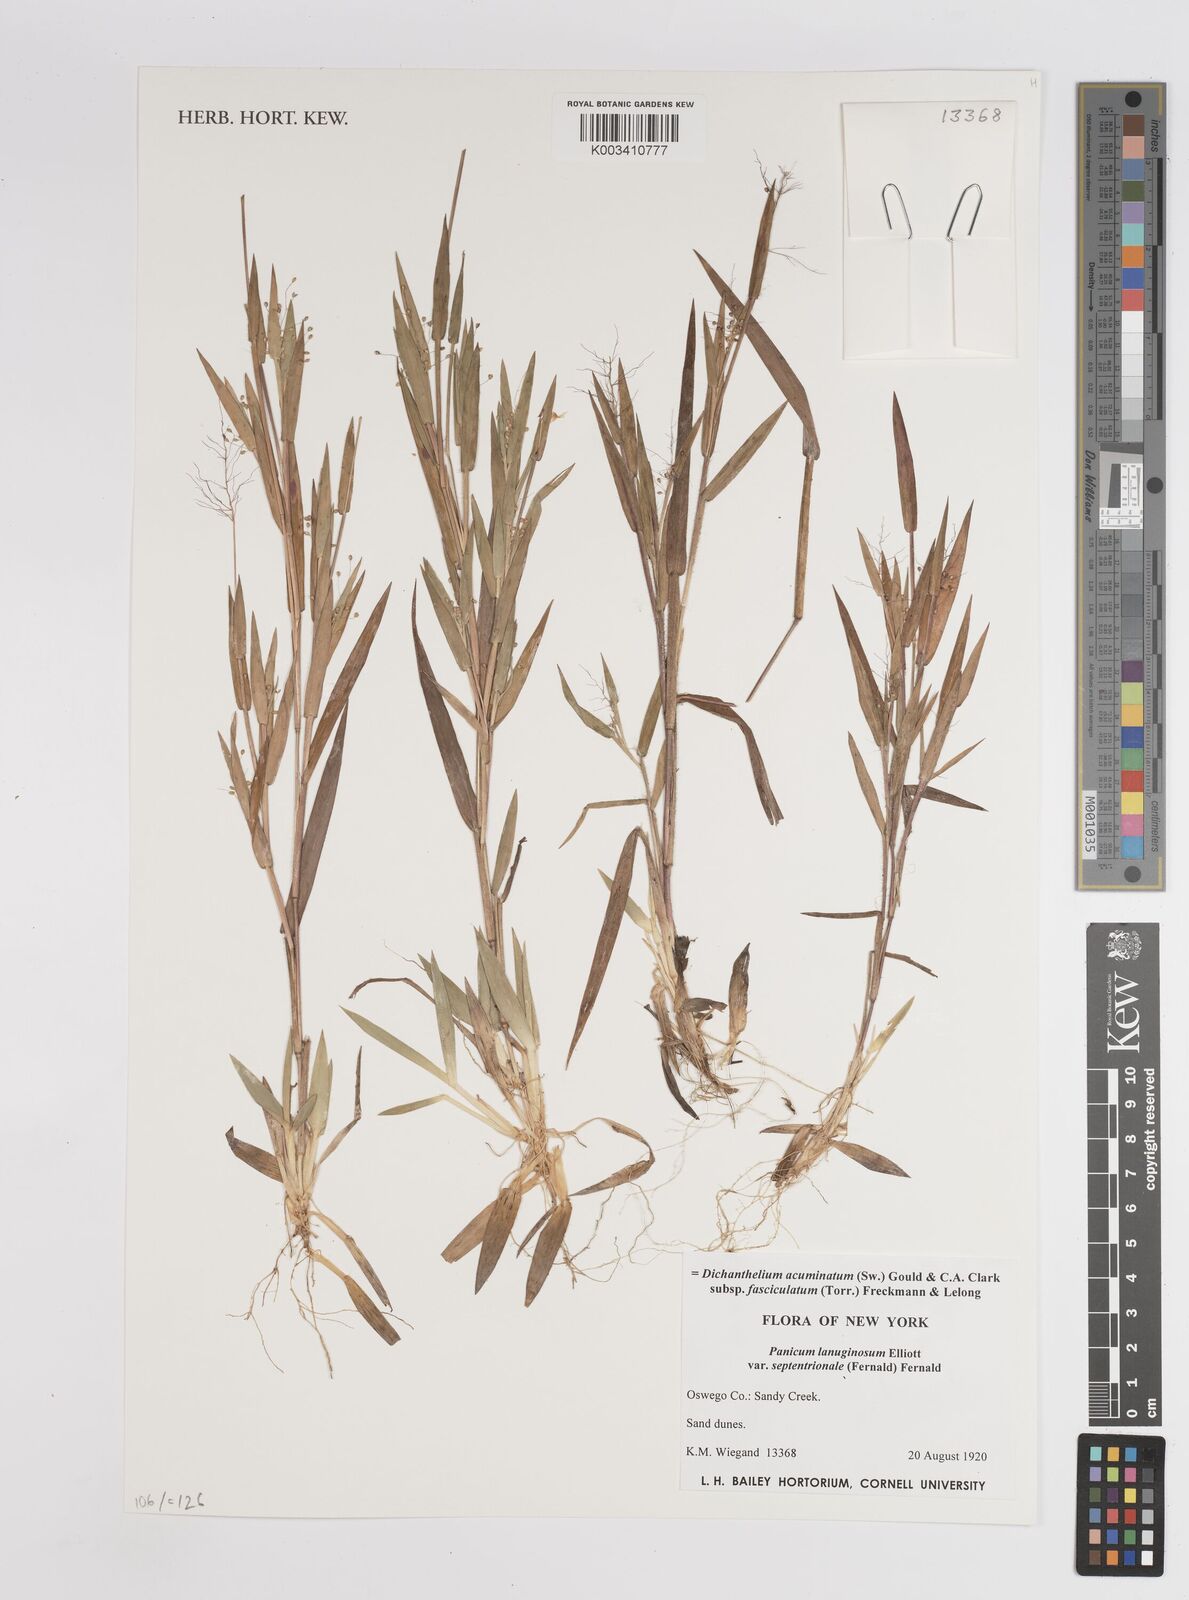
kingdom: Plantae
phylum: Tracheophyta
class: Liliopsida
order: Poales
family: Poaceae
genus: Dichanthelium
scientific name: Dichanthelium acuminatum
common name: Hairy panic grass
